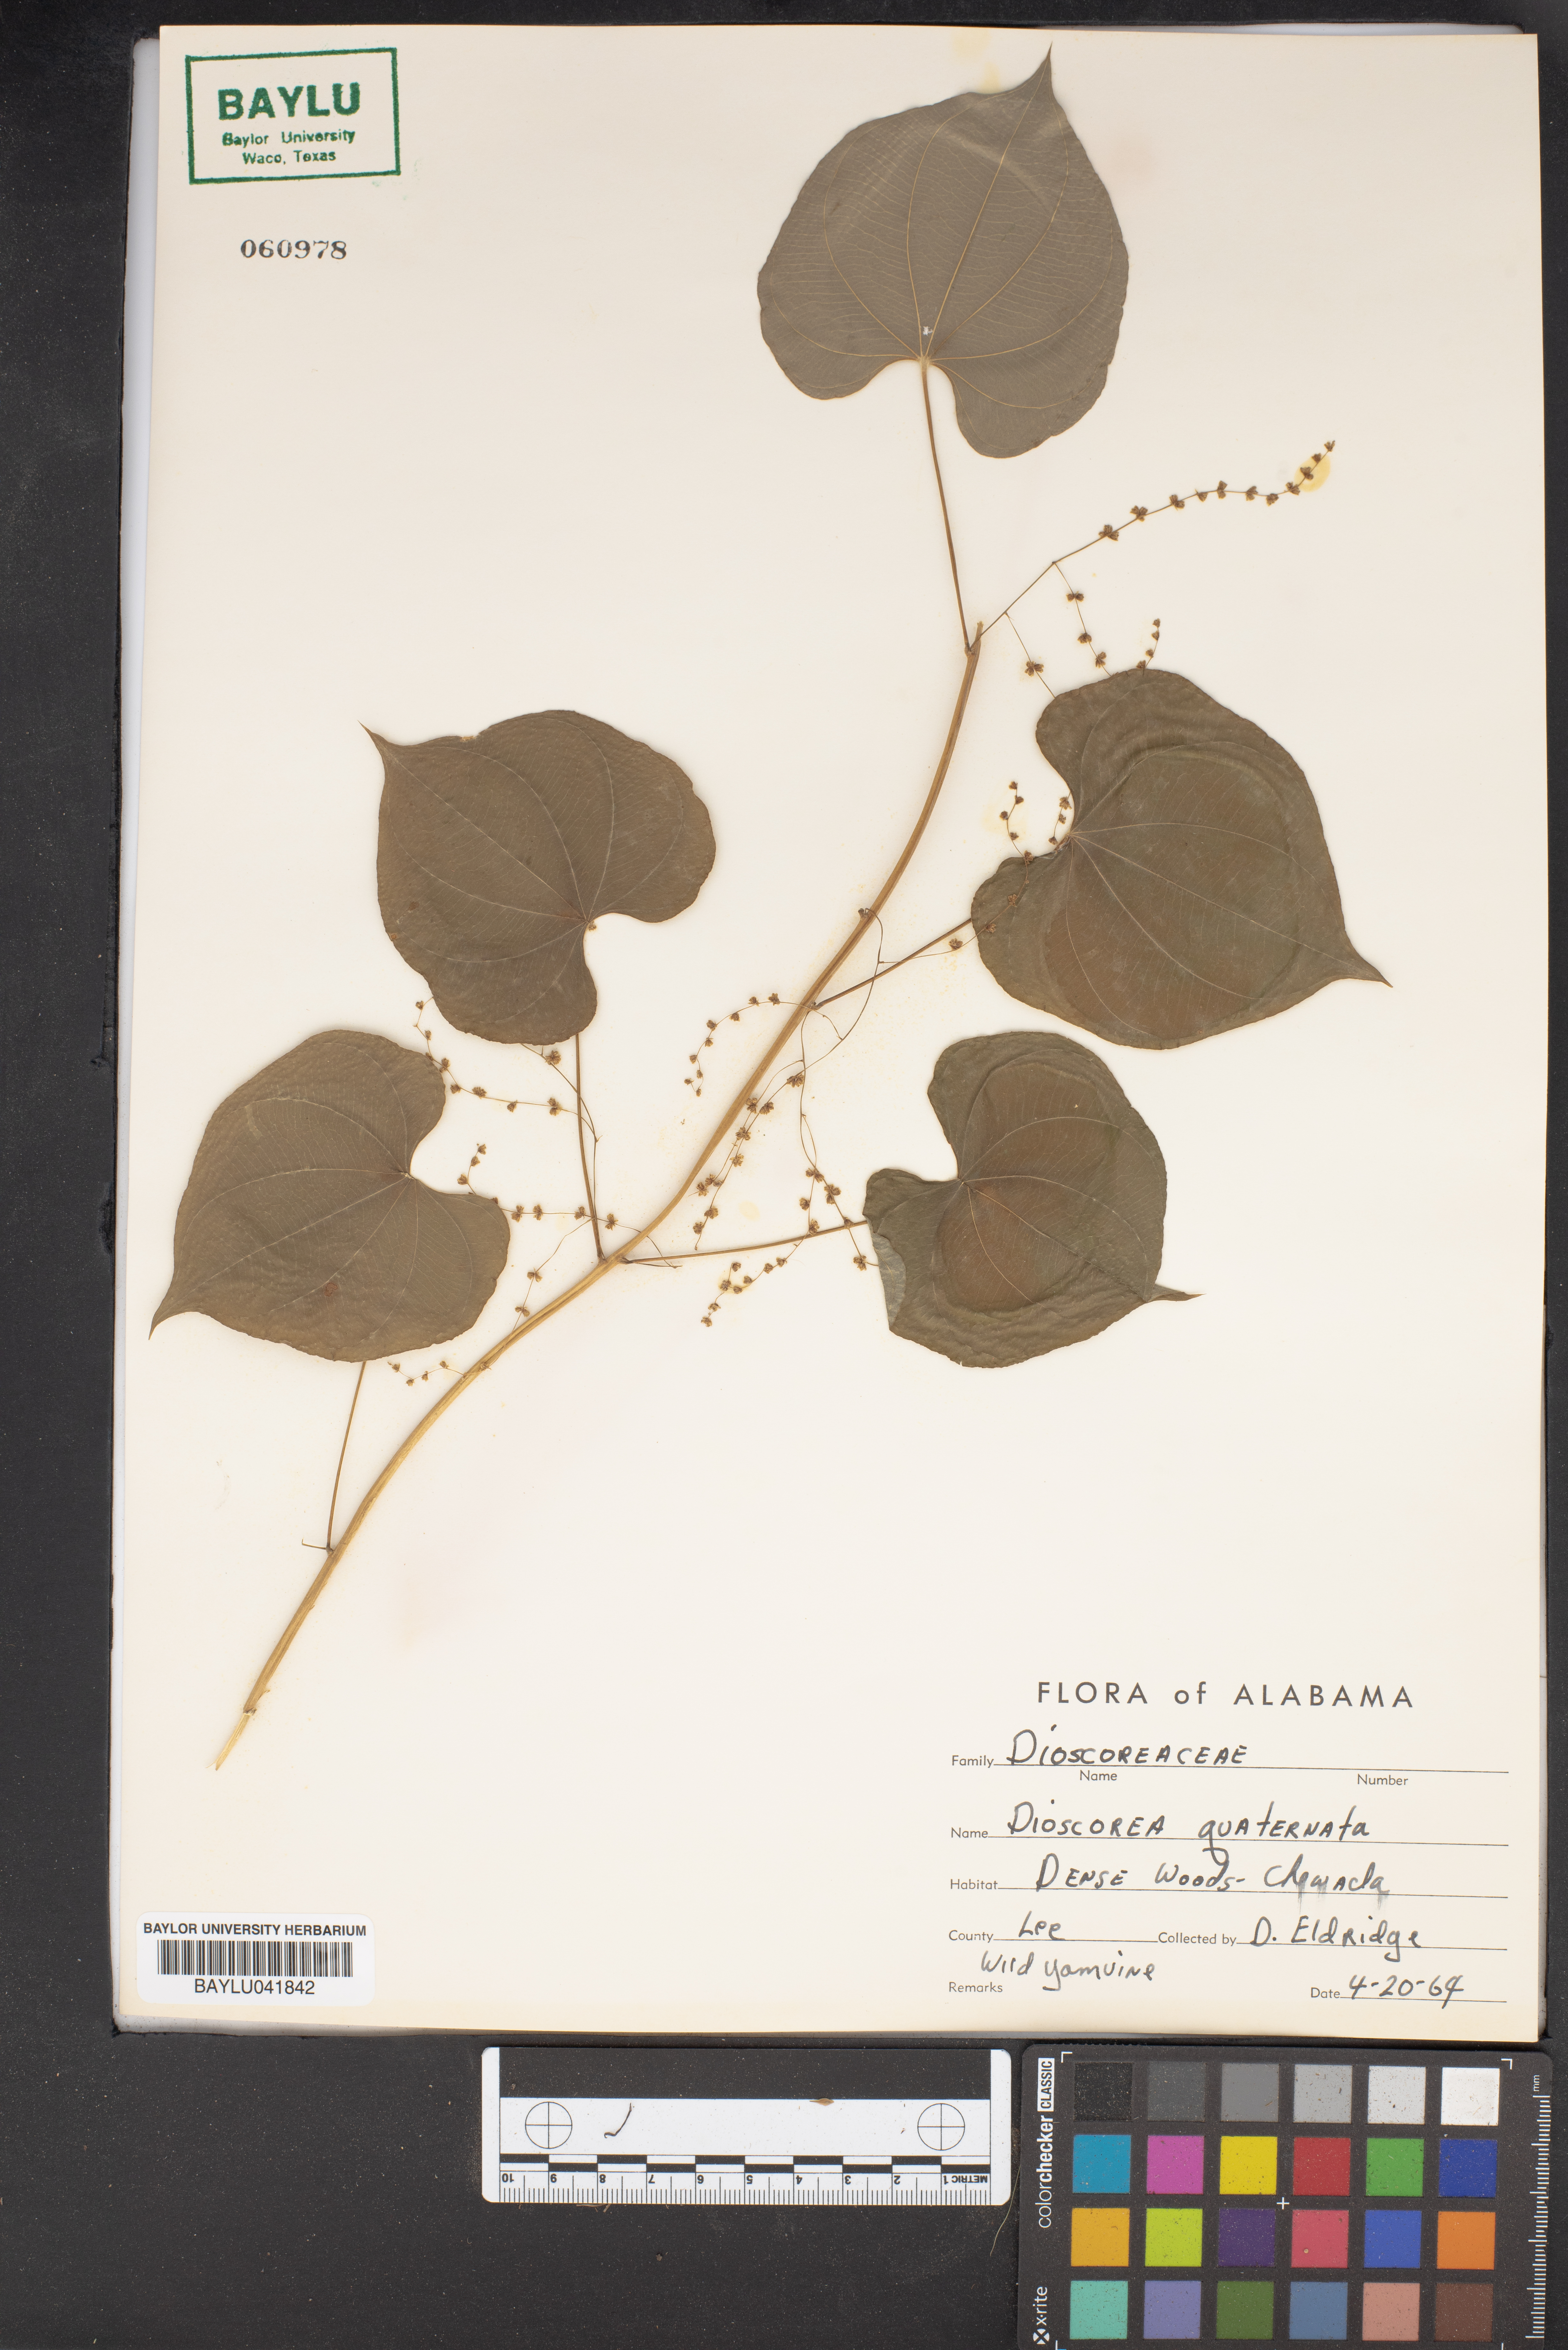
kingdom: Plantae
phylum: Tracheophyta
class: Liliopsida
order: Dioscoreales
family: Dioscoreaceae
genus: Dioscorea
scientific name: Dioscorea quaternata
